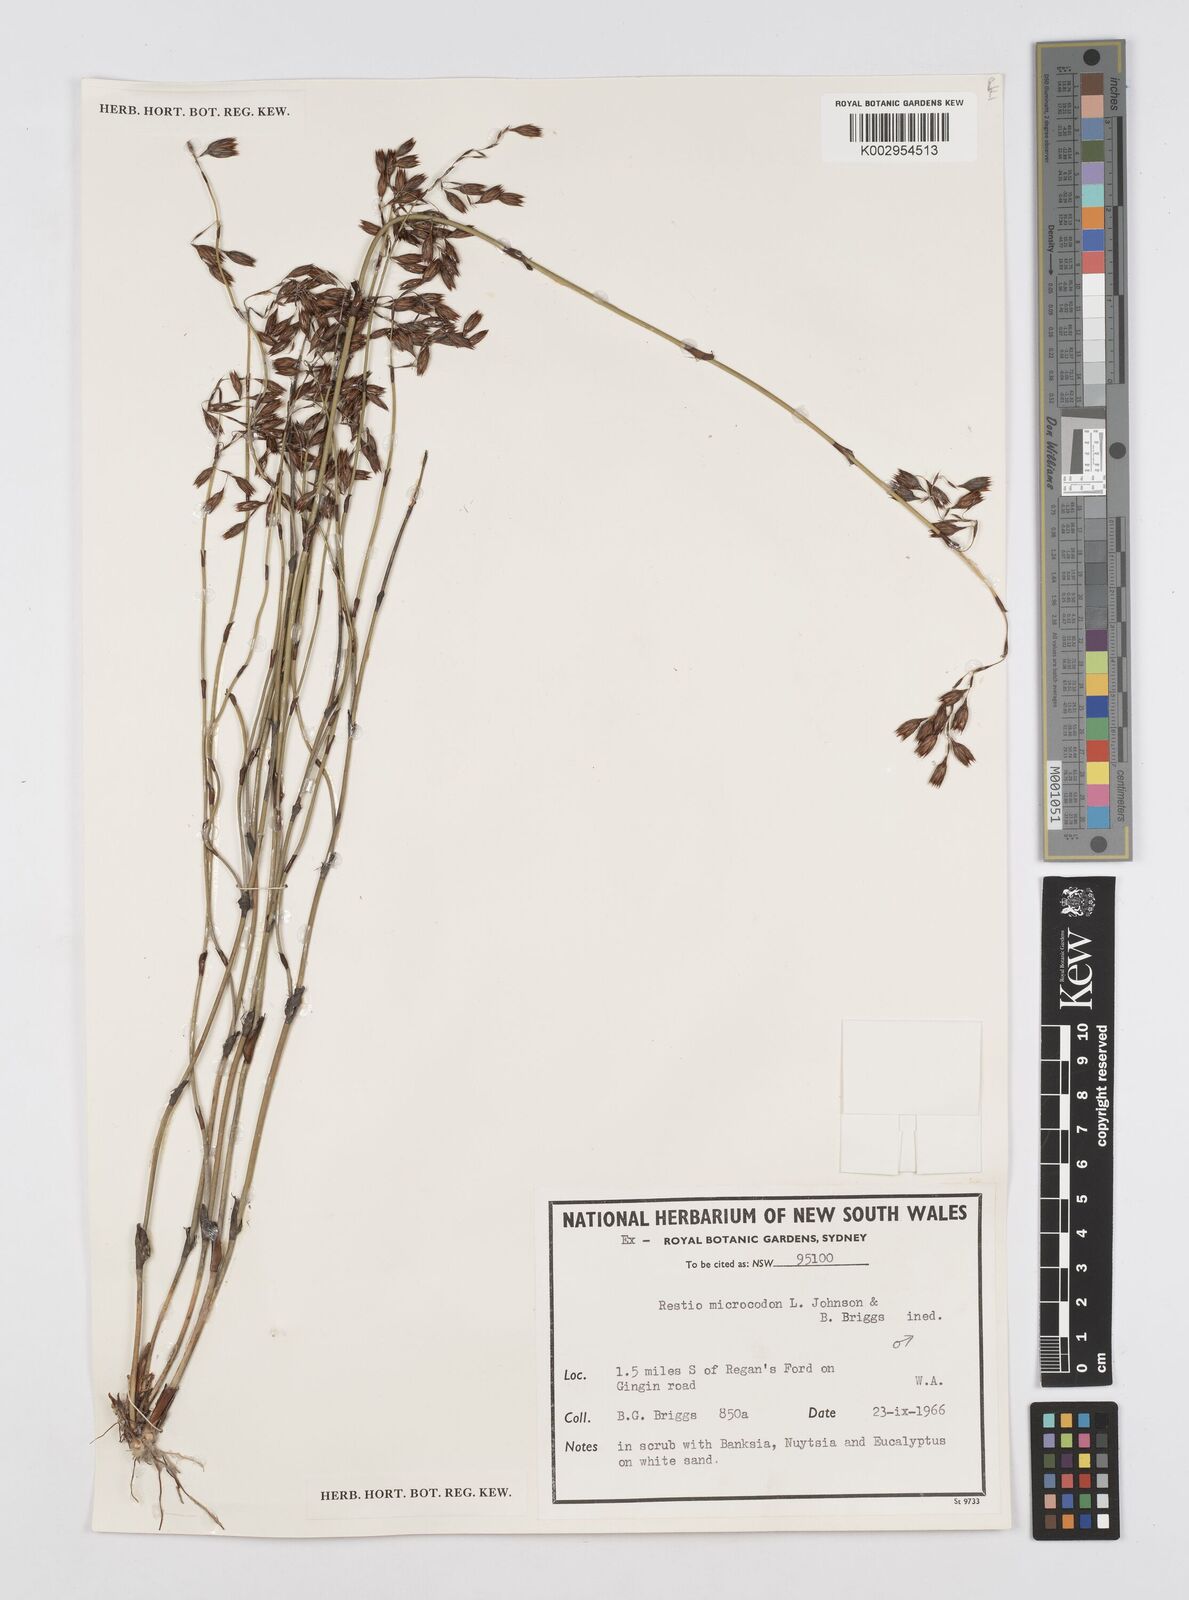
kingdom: Plantae
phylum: Tracheophyta
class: Liliopsida
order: Poales
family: Restionaceae
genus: Chordifex
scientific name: Chordifex microcodon
